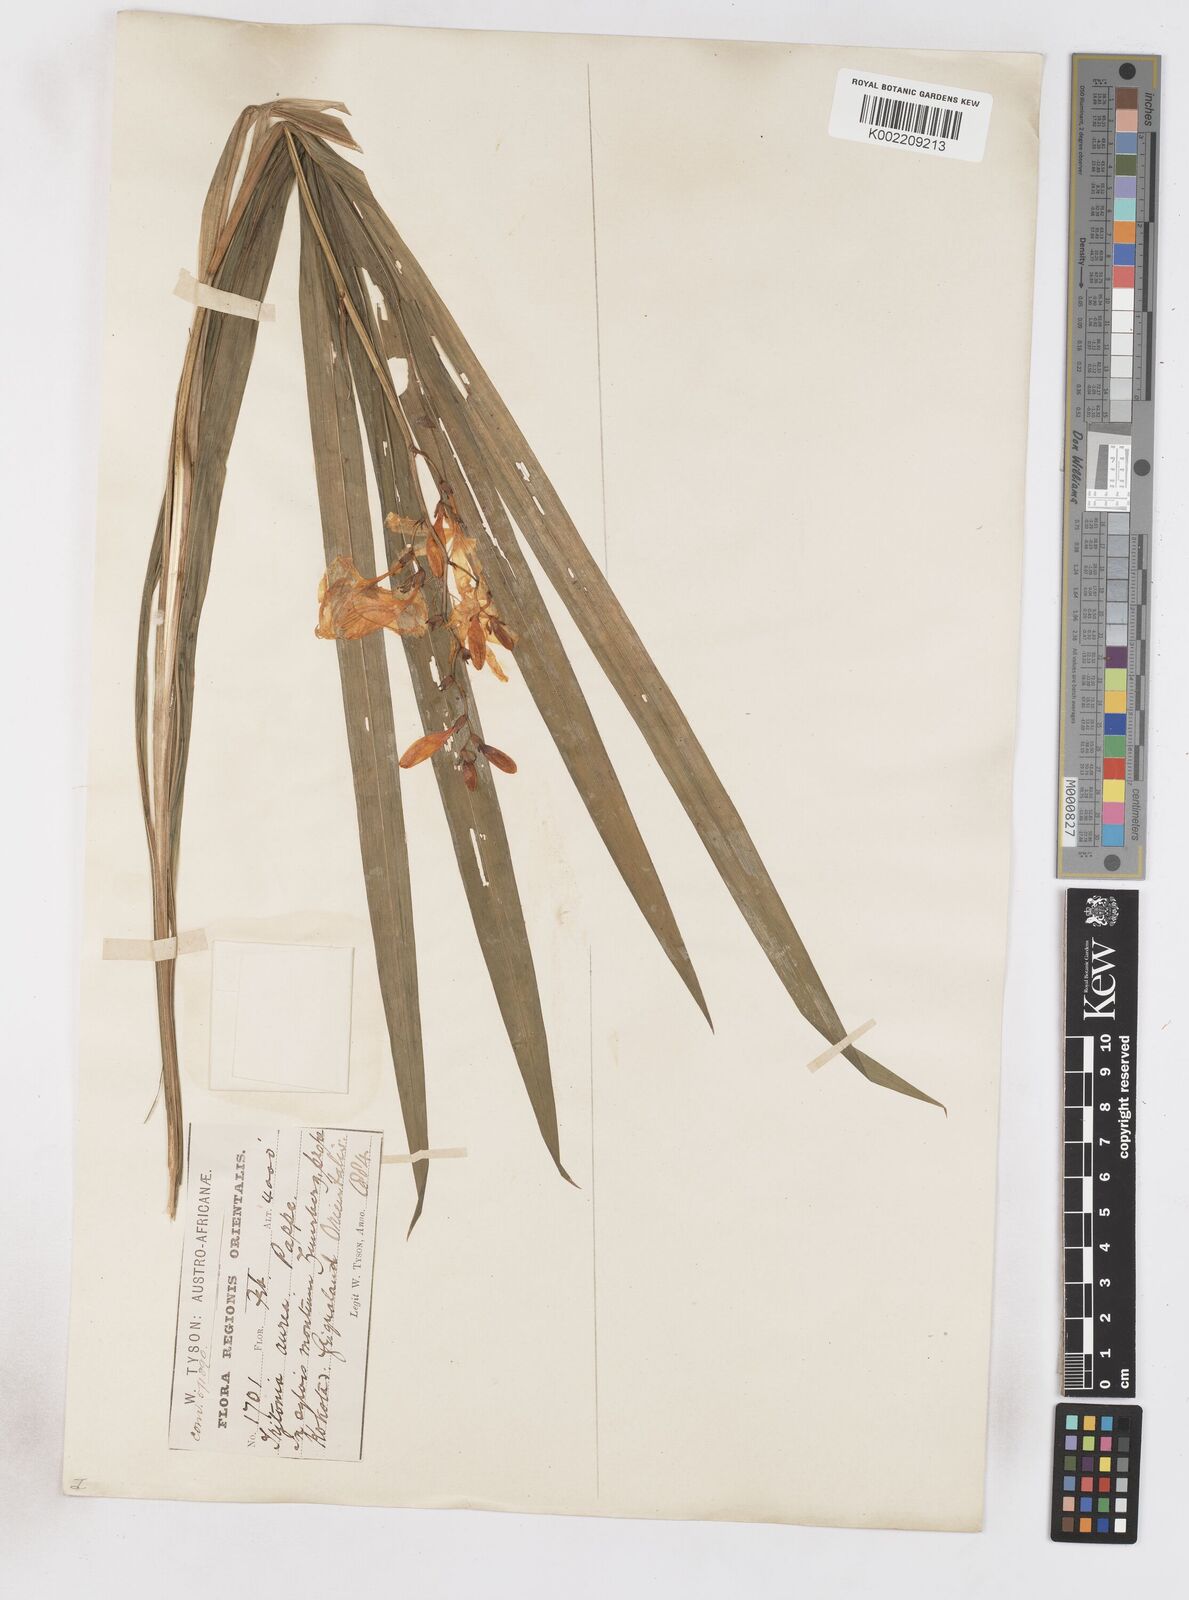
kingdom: Plantae
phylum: Tracheophyta
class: Liliopsida
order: Asparagales
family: Iridaceae
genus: Crocosmia
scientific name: Crocosmia aurea
